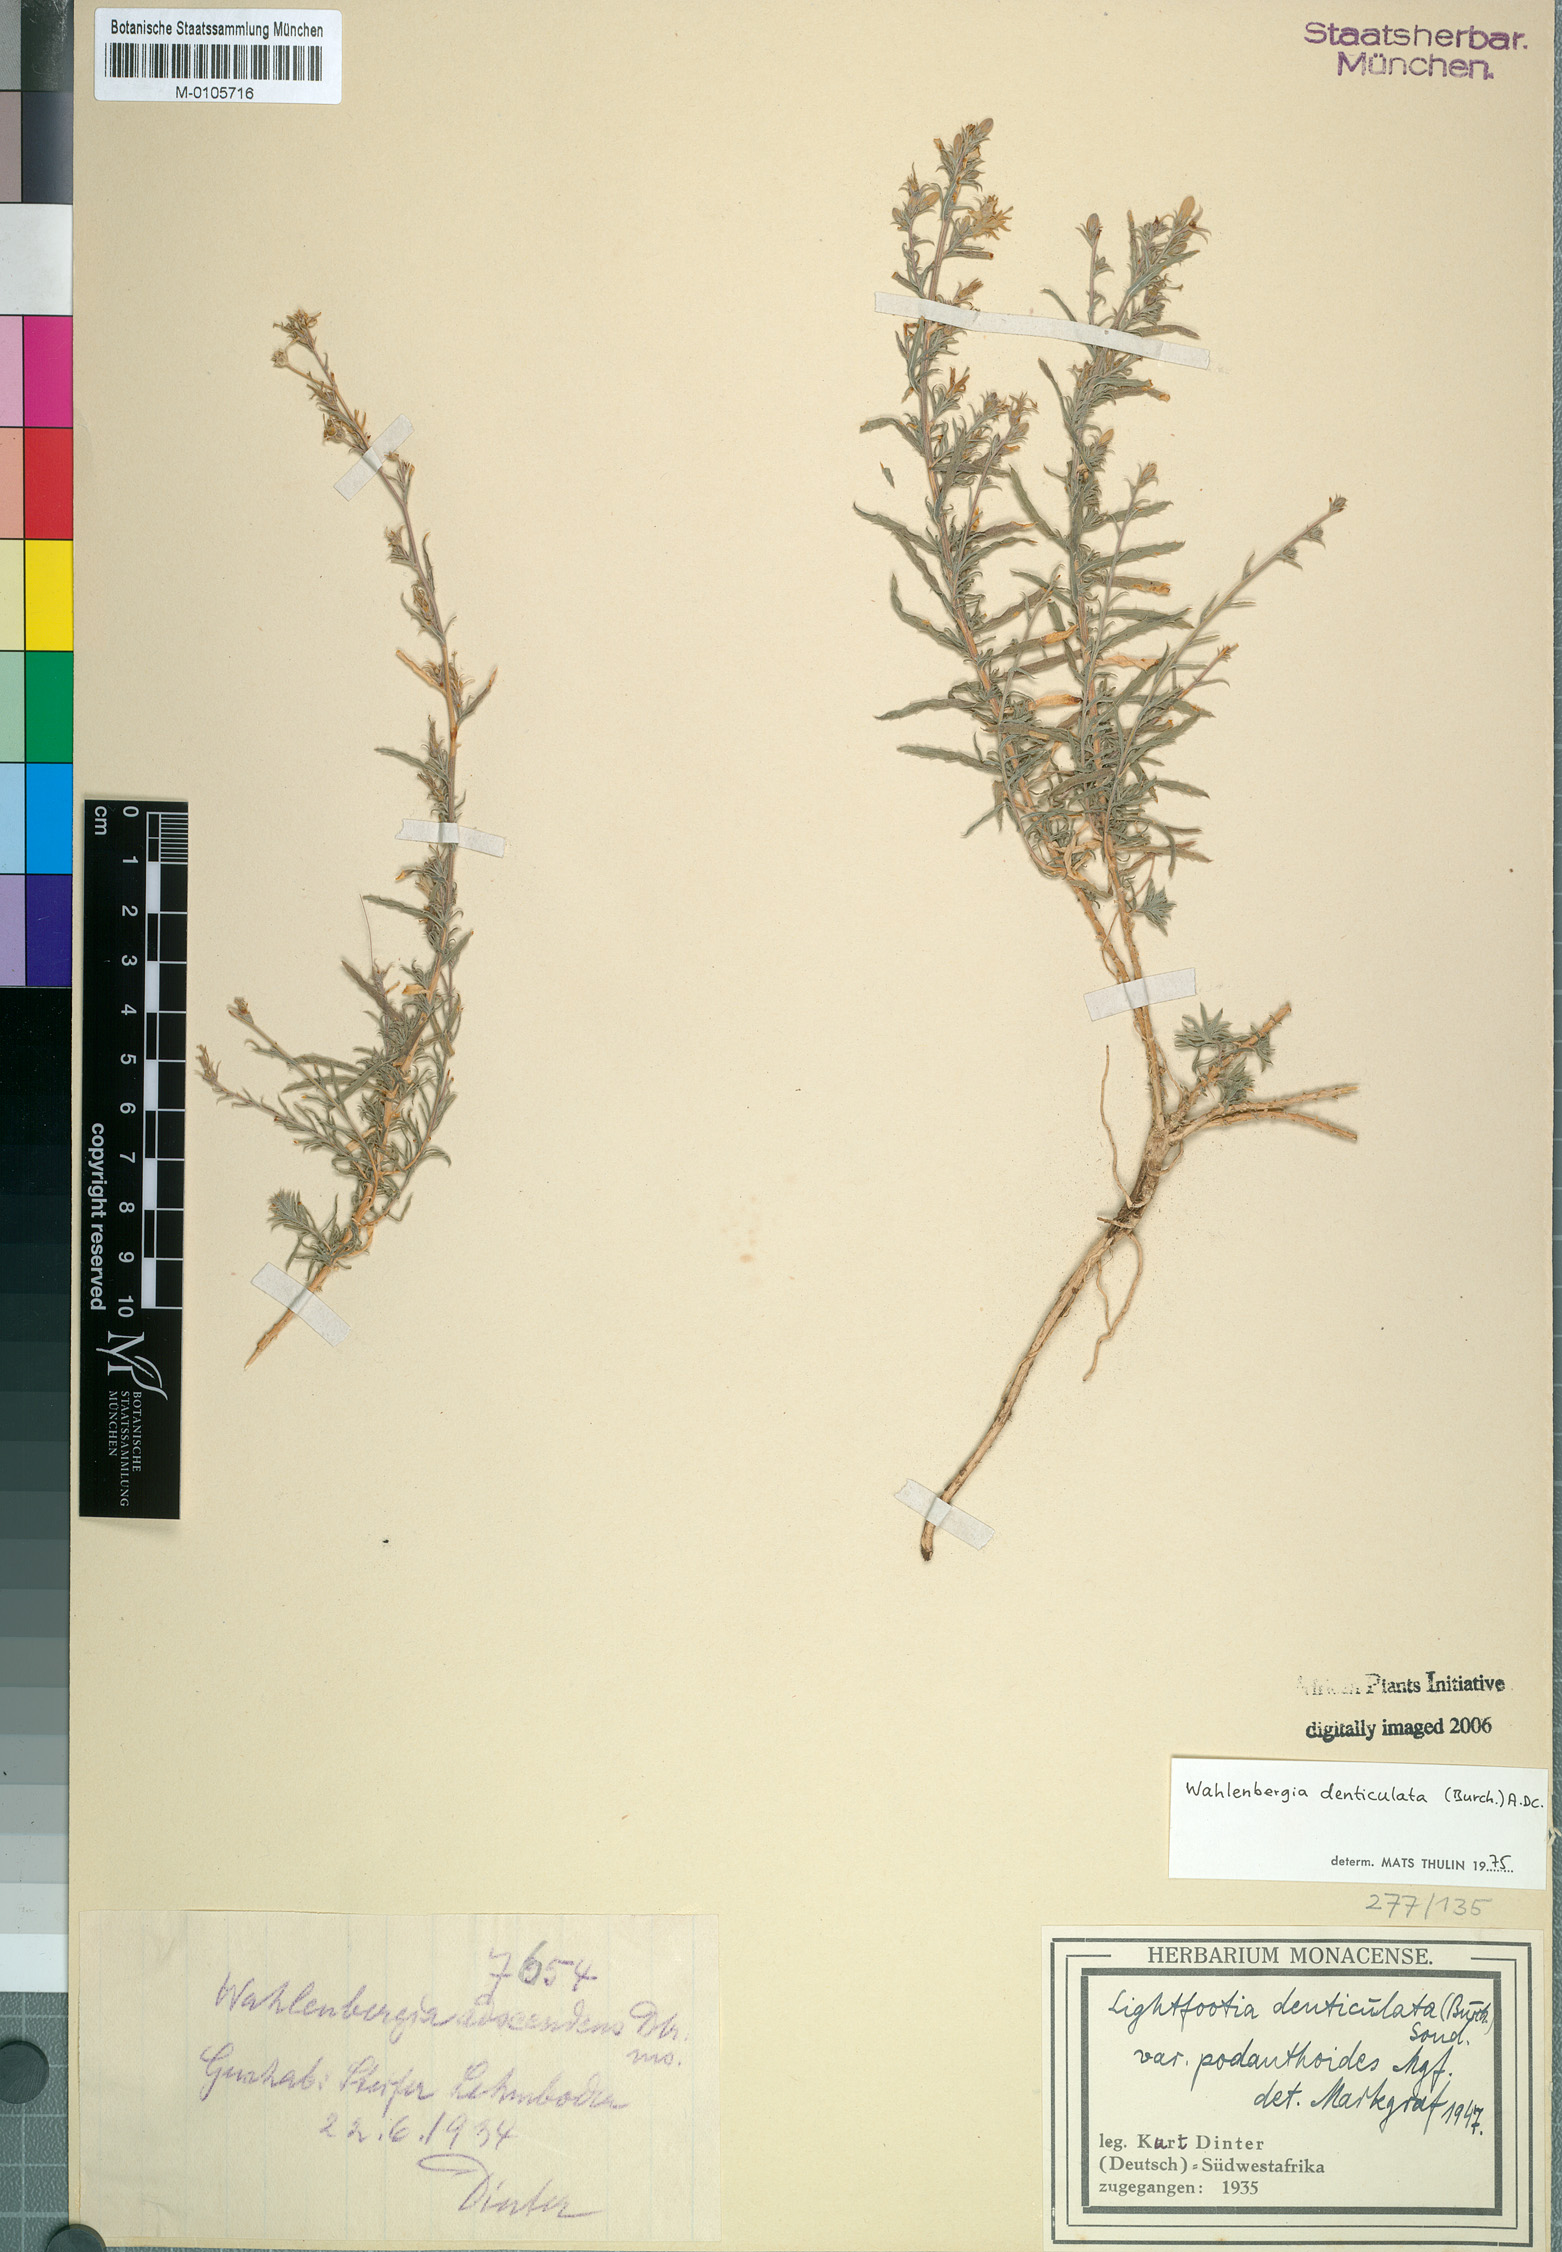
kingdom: Plantae
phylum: Tracheophyta
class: Magnoliopsida
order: Asterales
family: Campanulaceae
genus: Wahlenbergia
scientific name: Wahlenbergia denticulata
